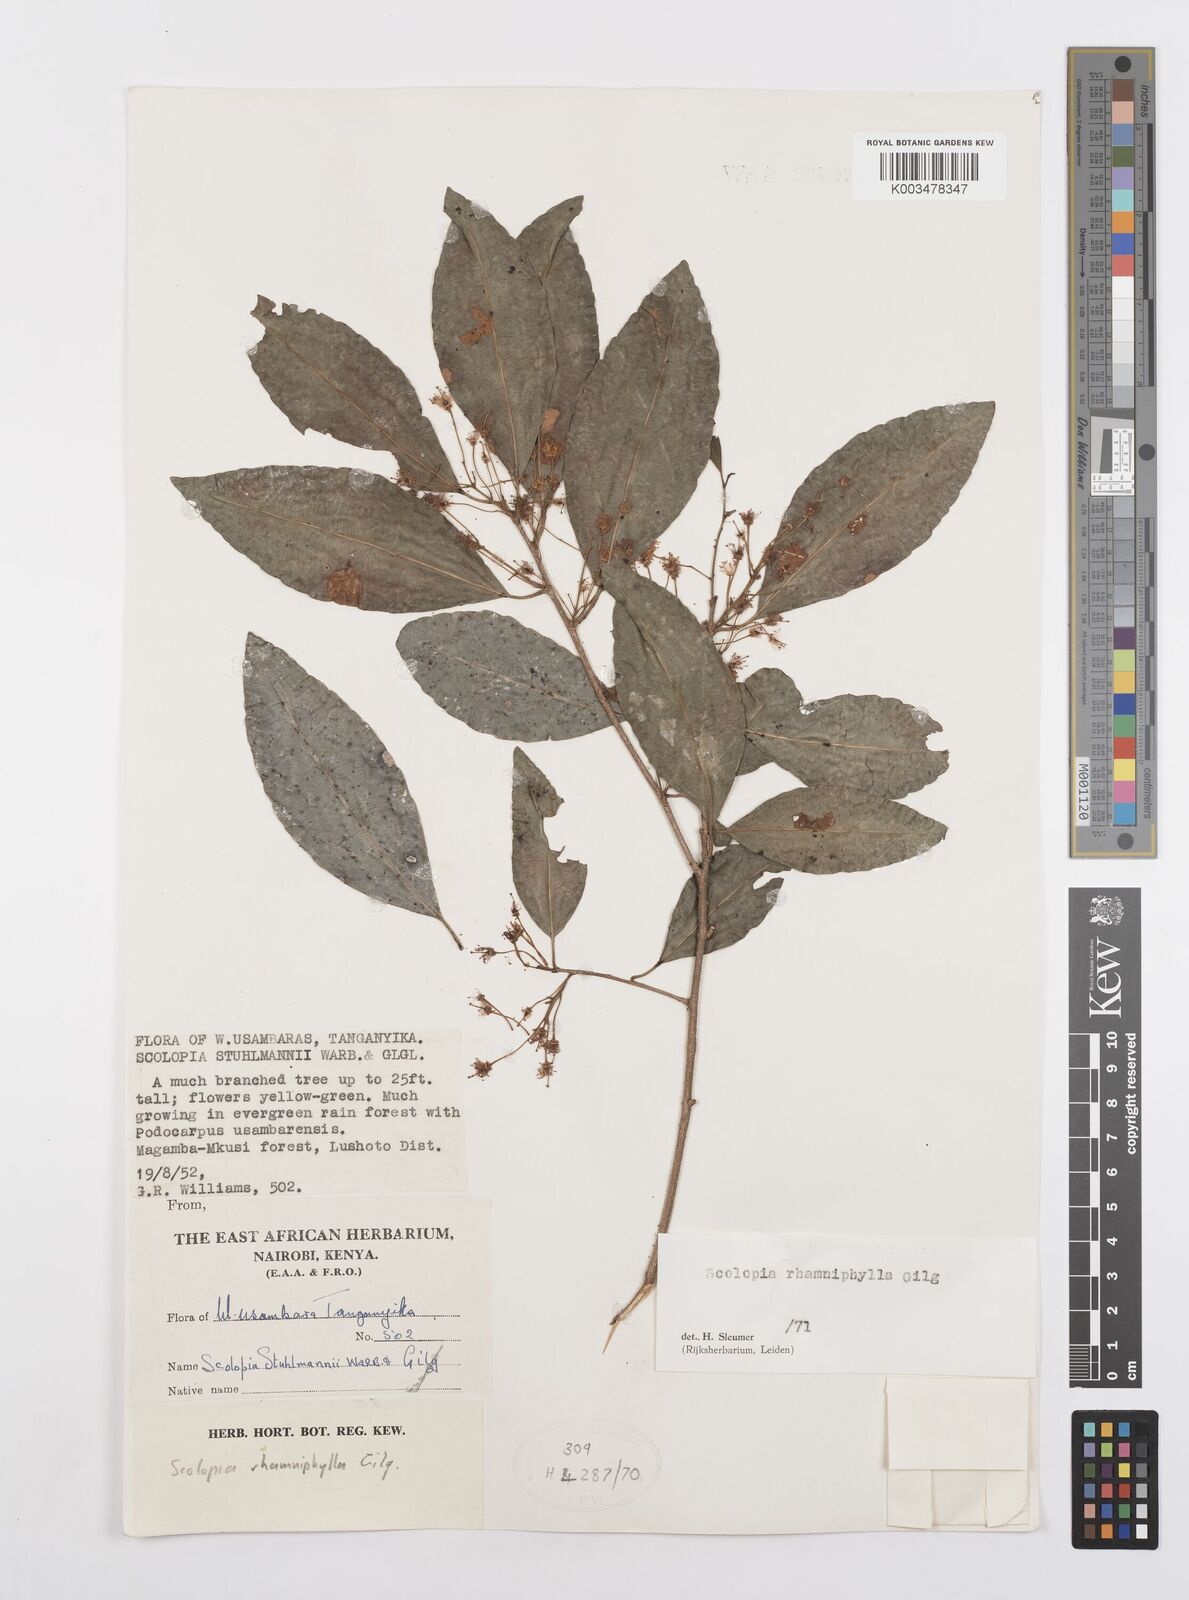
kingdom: Plantae
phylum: Tracheophyta
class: Magnoliopsida
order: Malpighiales
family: Salicaceae
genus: Scolopia
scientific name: Scolopia rhamniphylla
